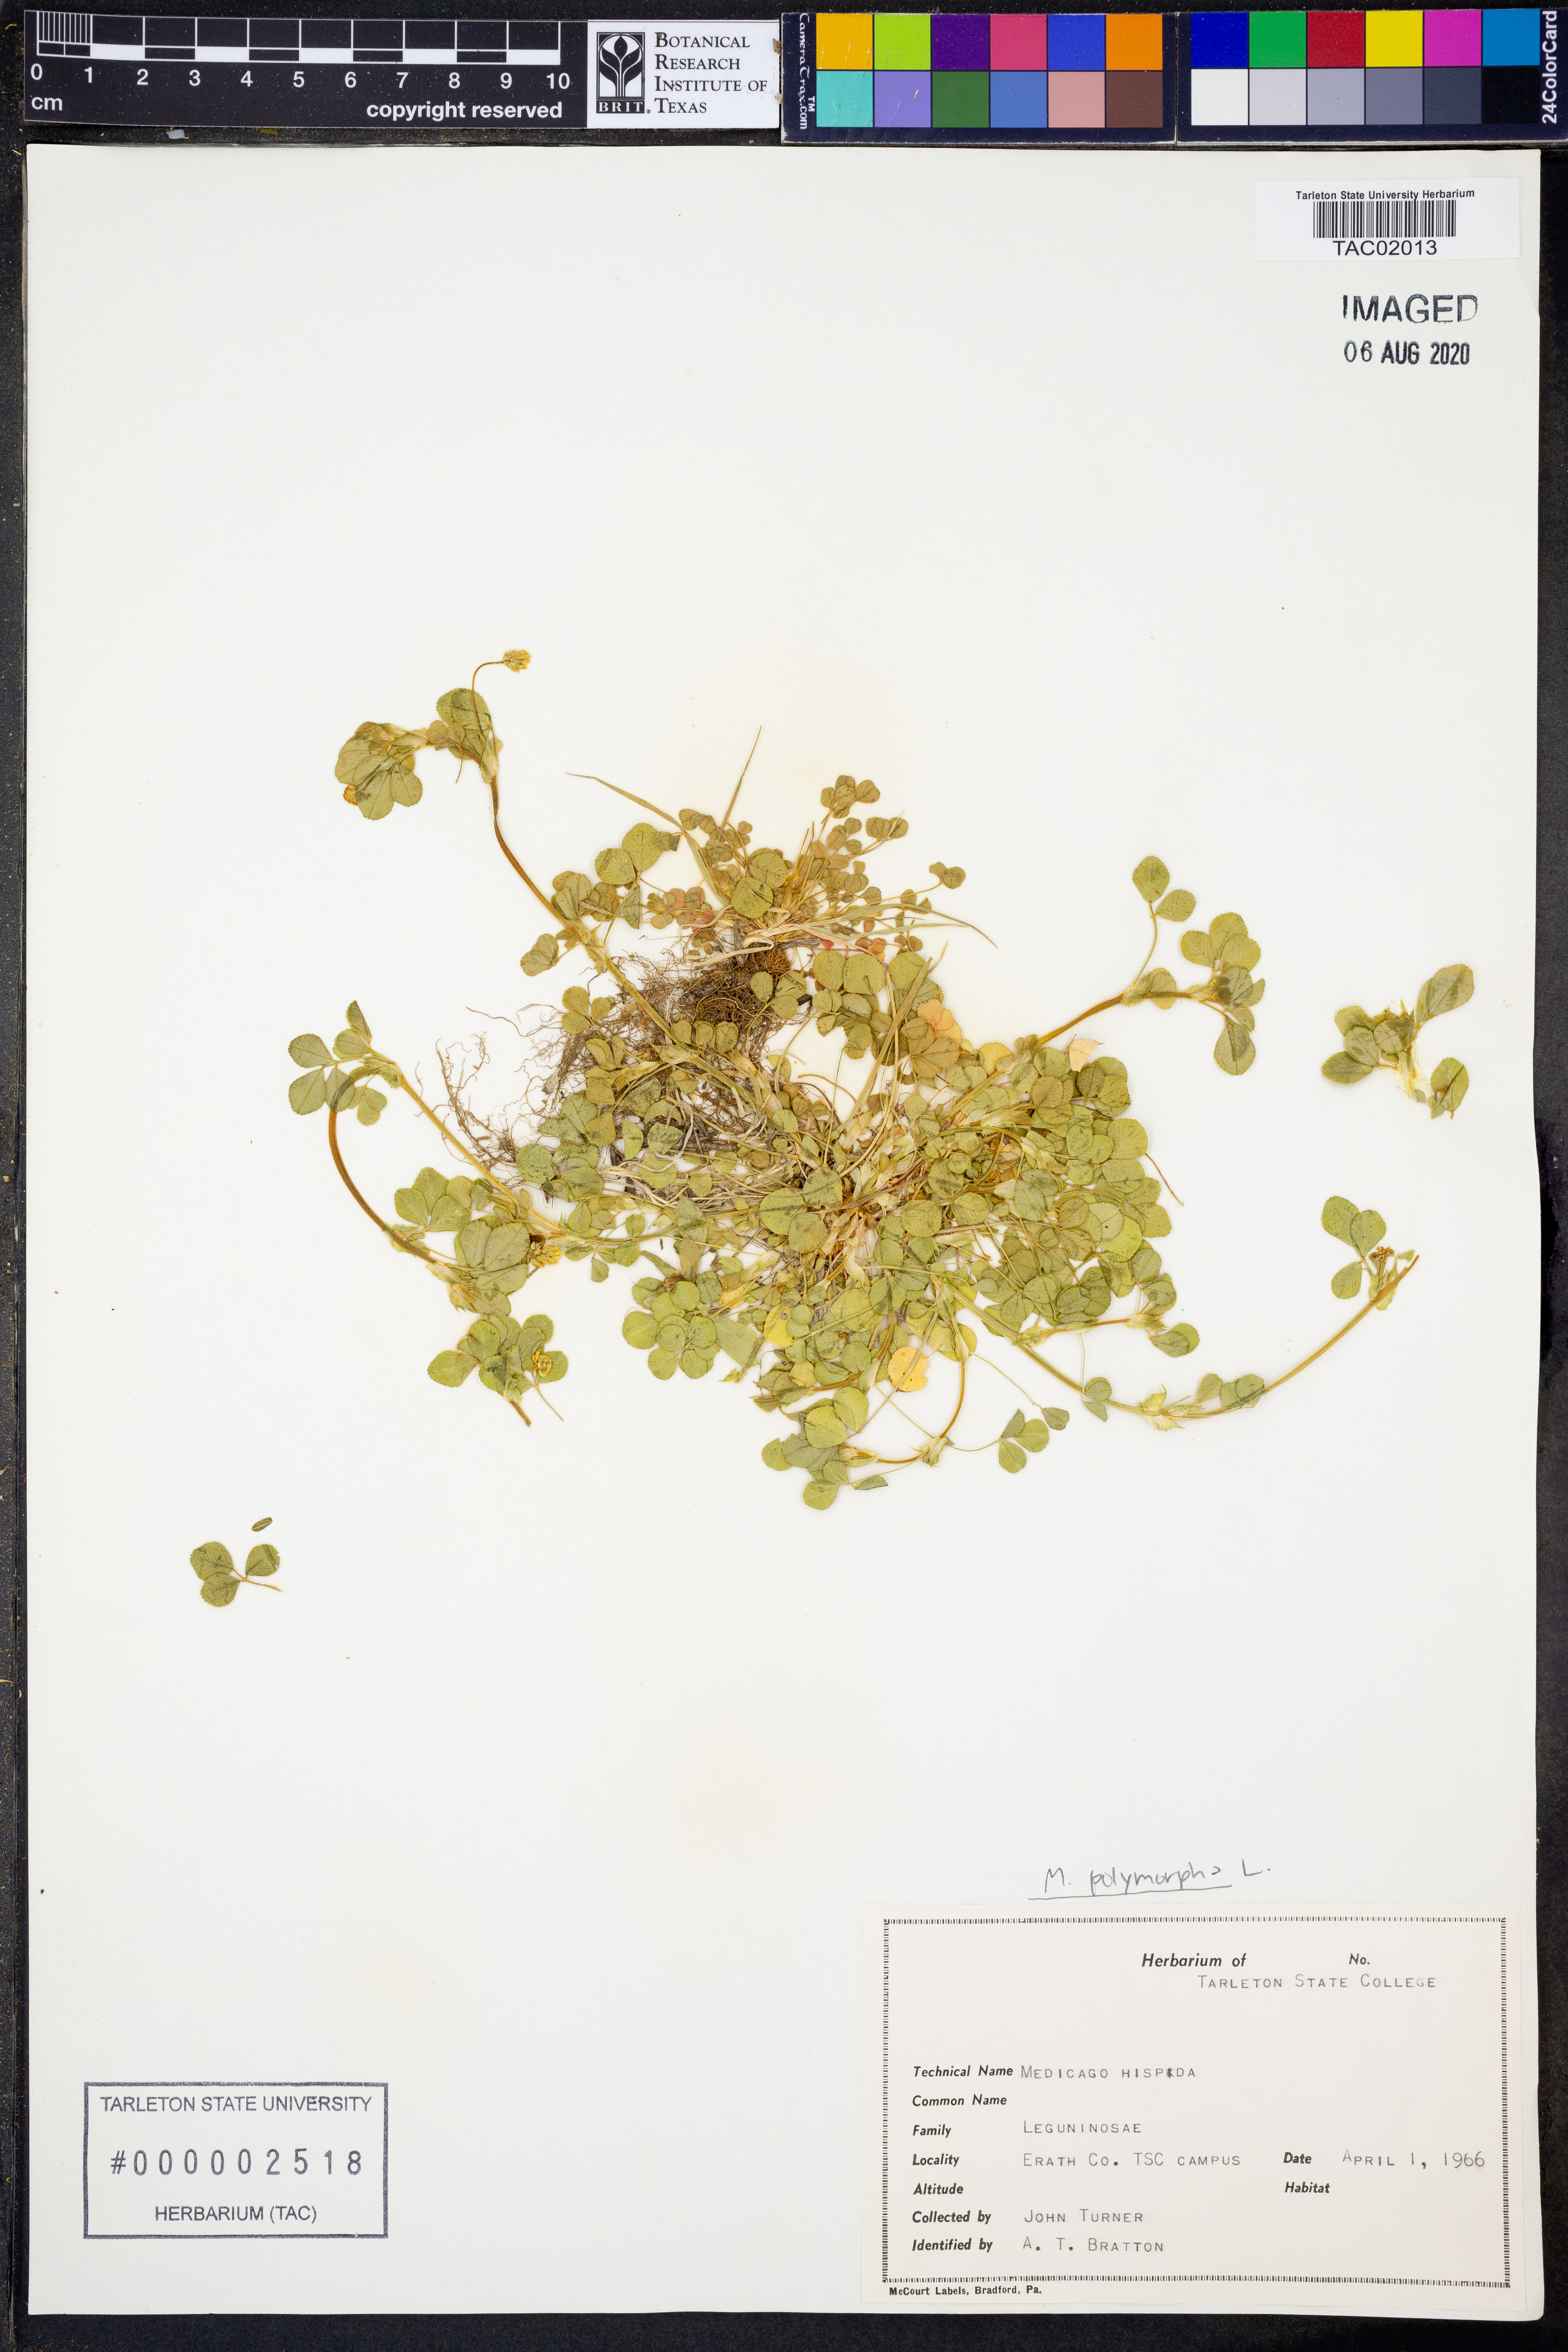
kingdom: Plantae
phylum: Tracheophyta
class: Magnoliopsida
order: Fabales
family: Fabaceae
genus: Medicago
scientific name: Medicago polymorpha
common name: Burclover
